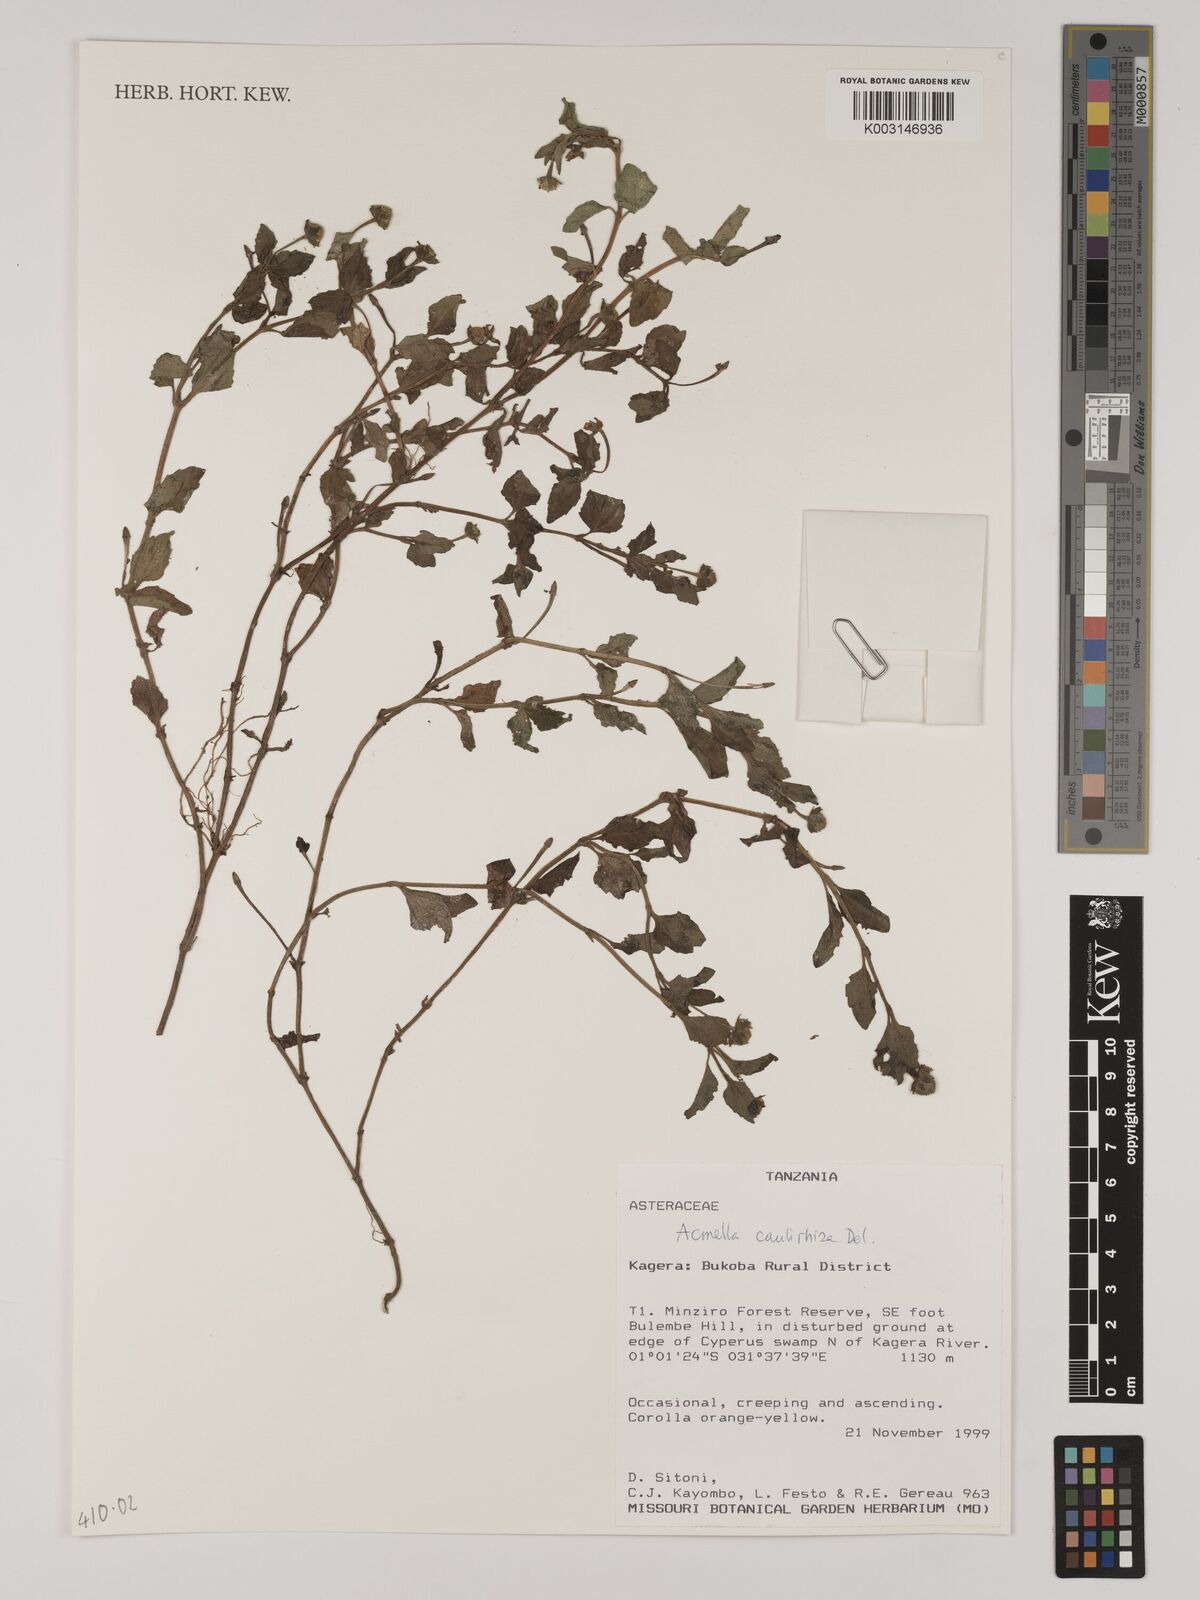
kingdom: Plantae
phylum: Tracheophyta
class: Magnoliopsida
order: Asterales
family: Asteraceae
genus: Acmella
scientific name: Acmella caulirhiza
